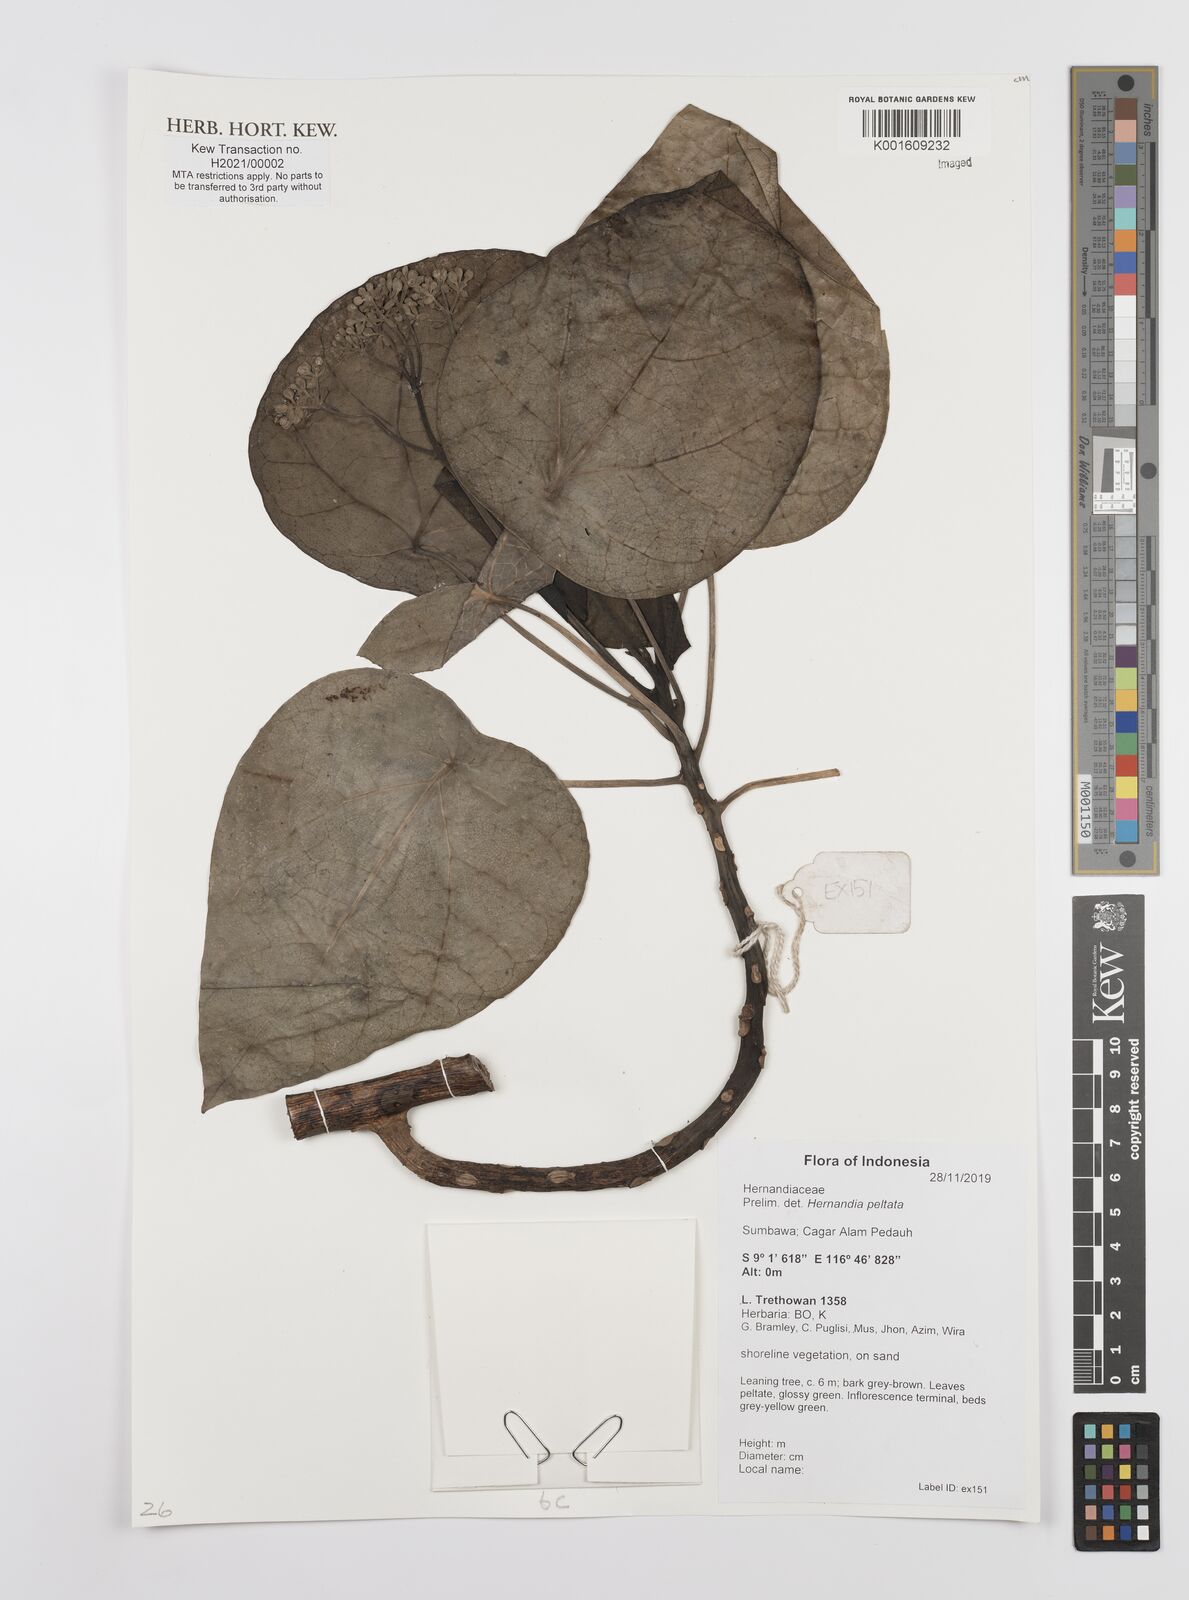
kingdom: Plantae
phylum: Tracheophyta
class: Magnoliopsida
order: Laurales
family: Hernandiaceae
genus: Hernandia
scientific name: Hernandia sonora
